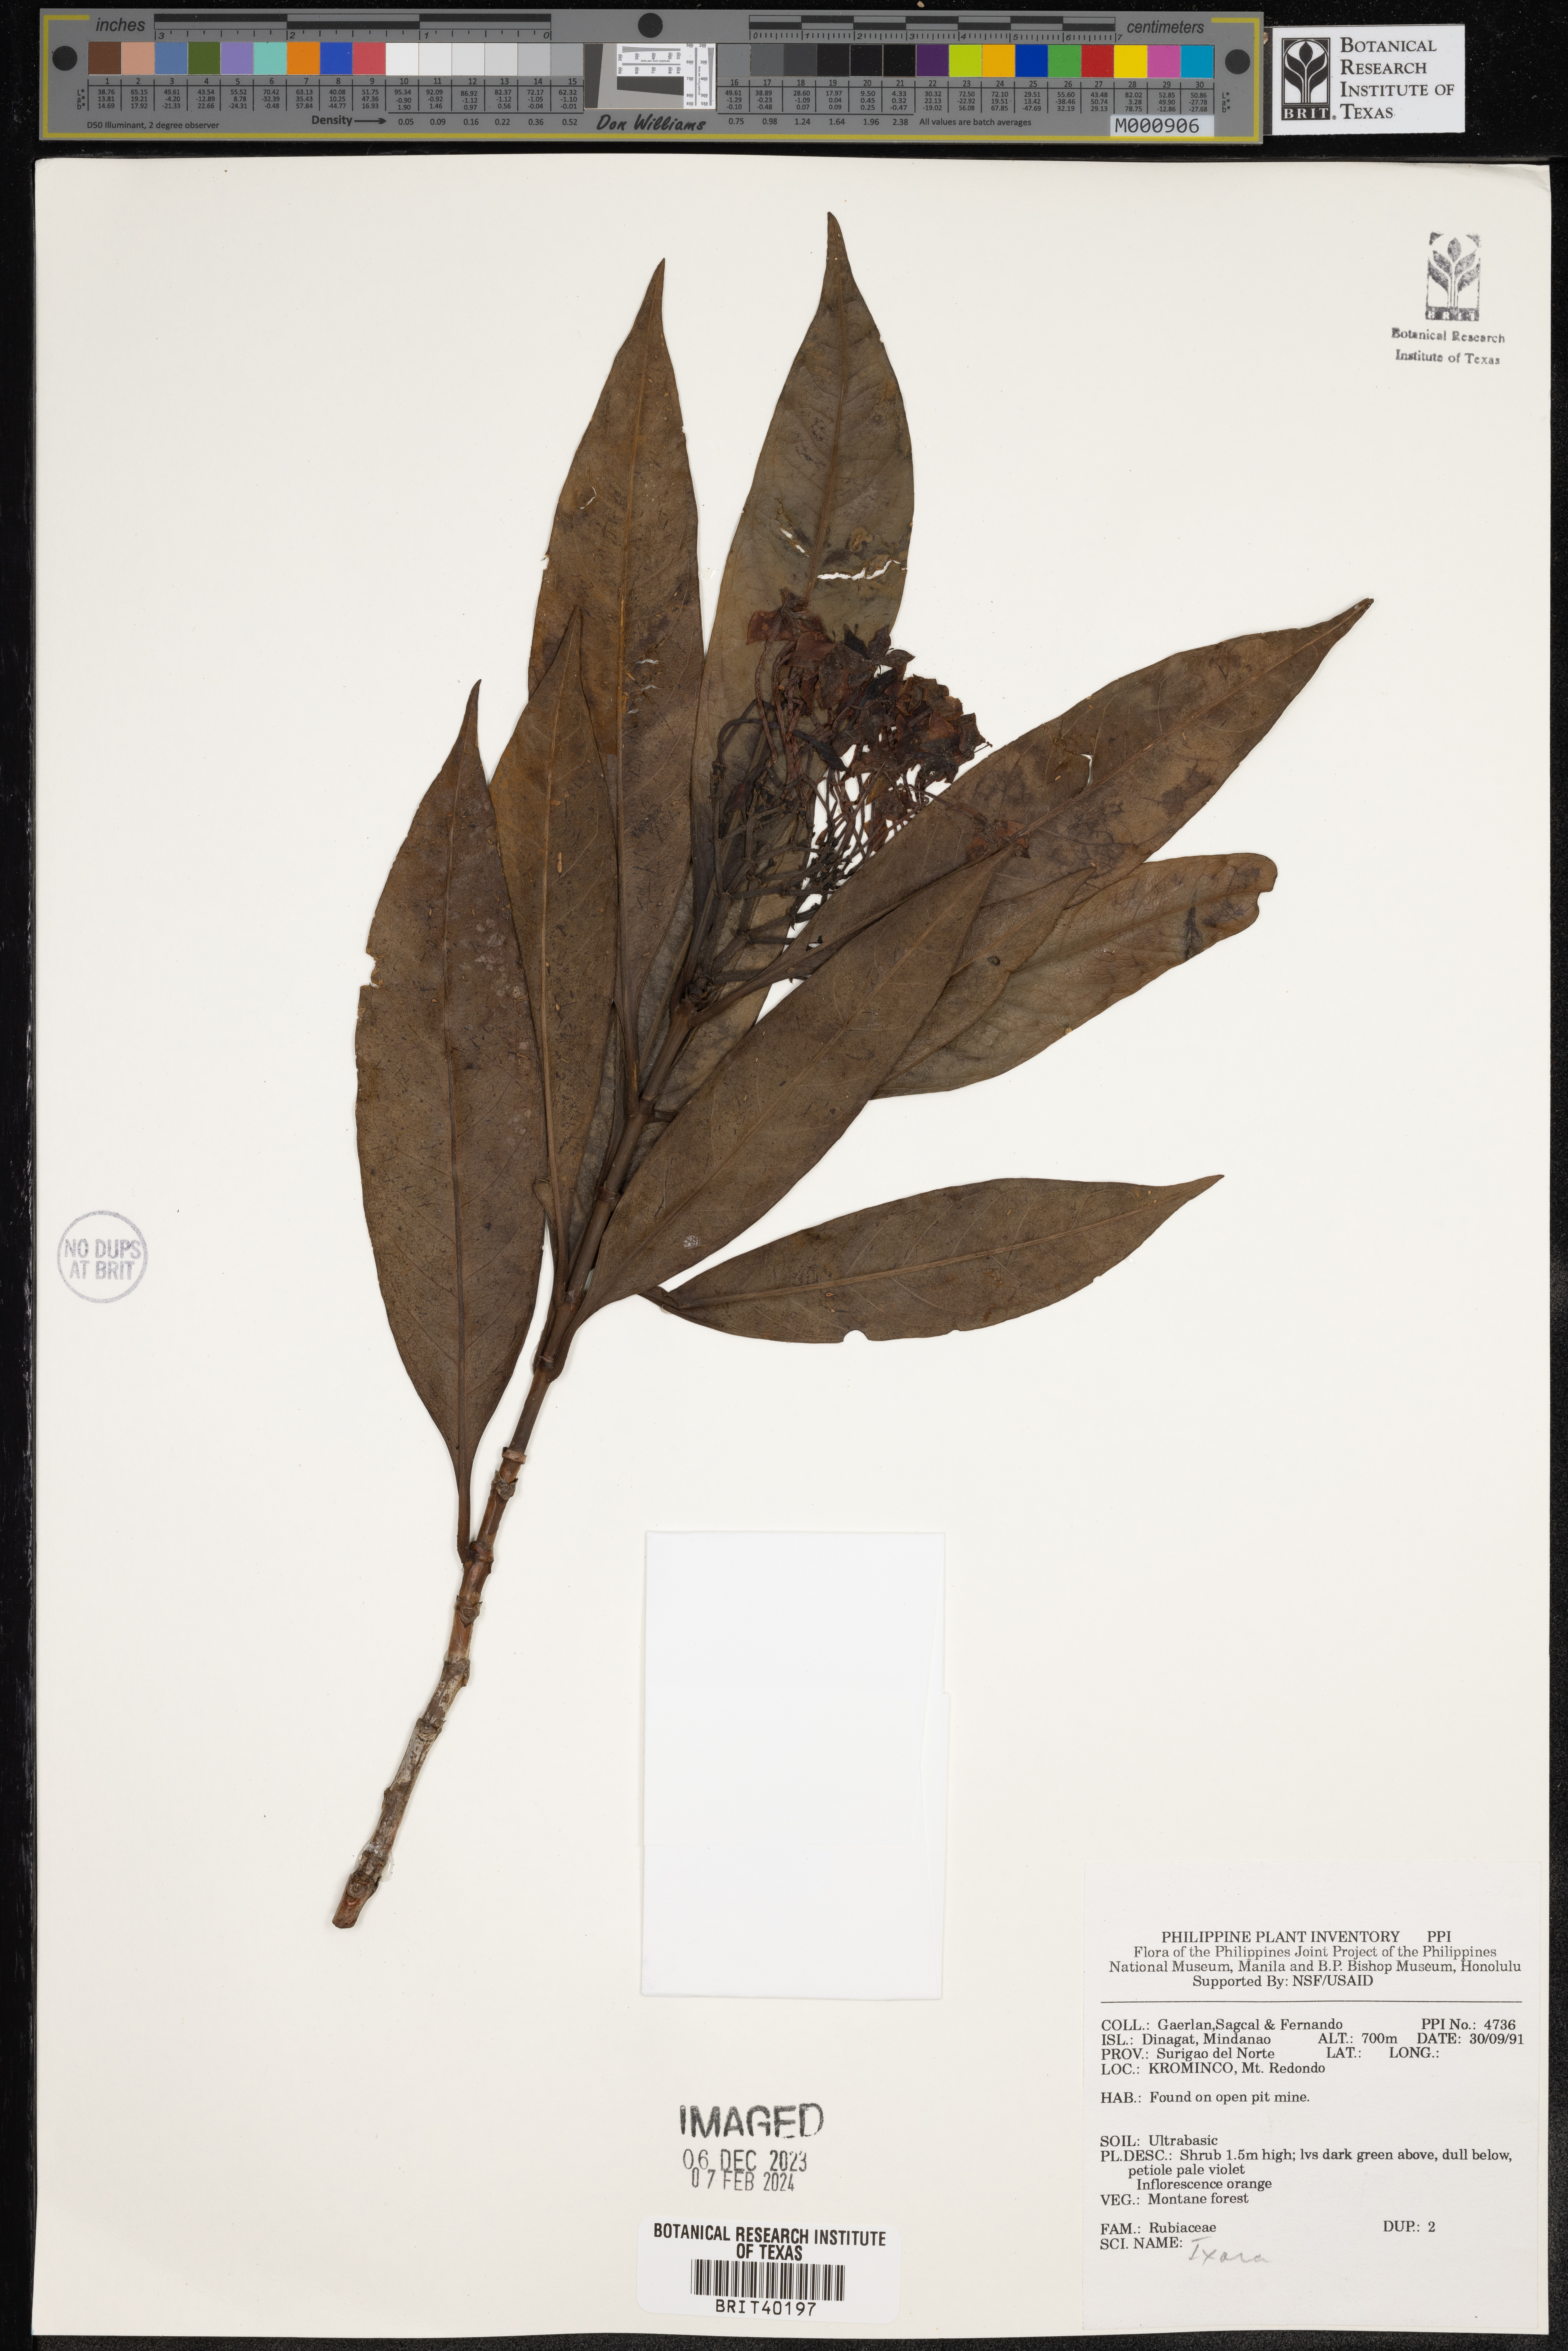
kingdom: Plantae
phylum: Tracheophyta
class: Magnoliopsida
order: Gentianales
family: Rubiaceae
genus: Ixora
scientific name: Ixora
